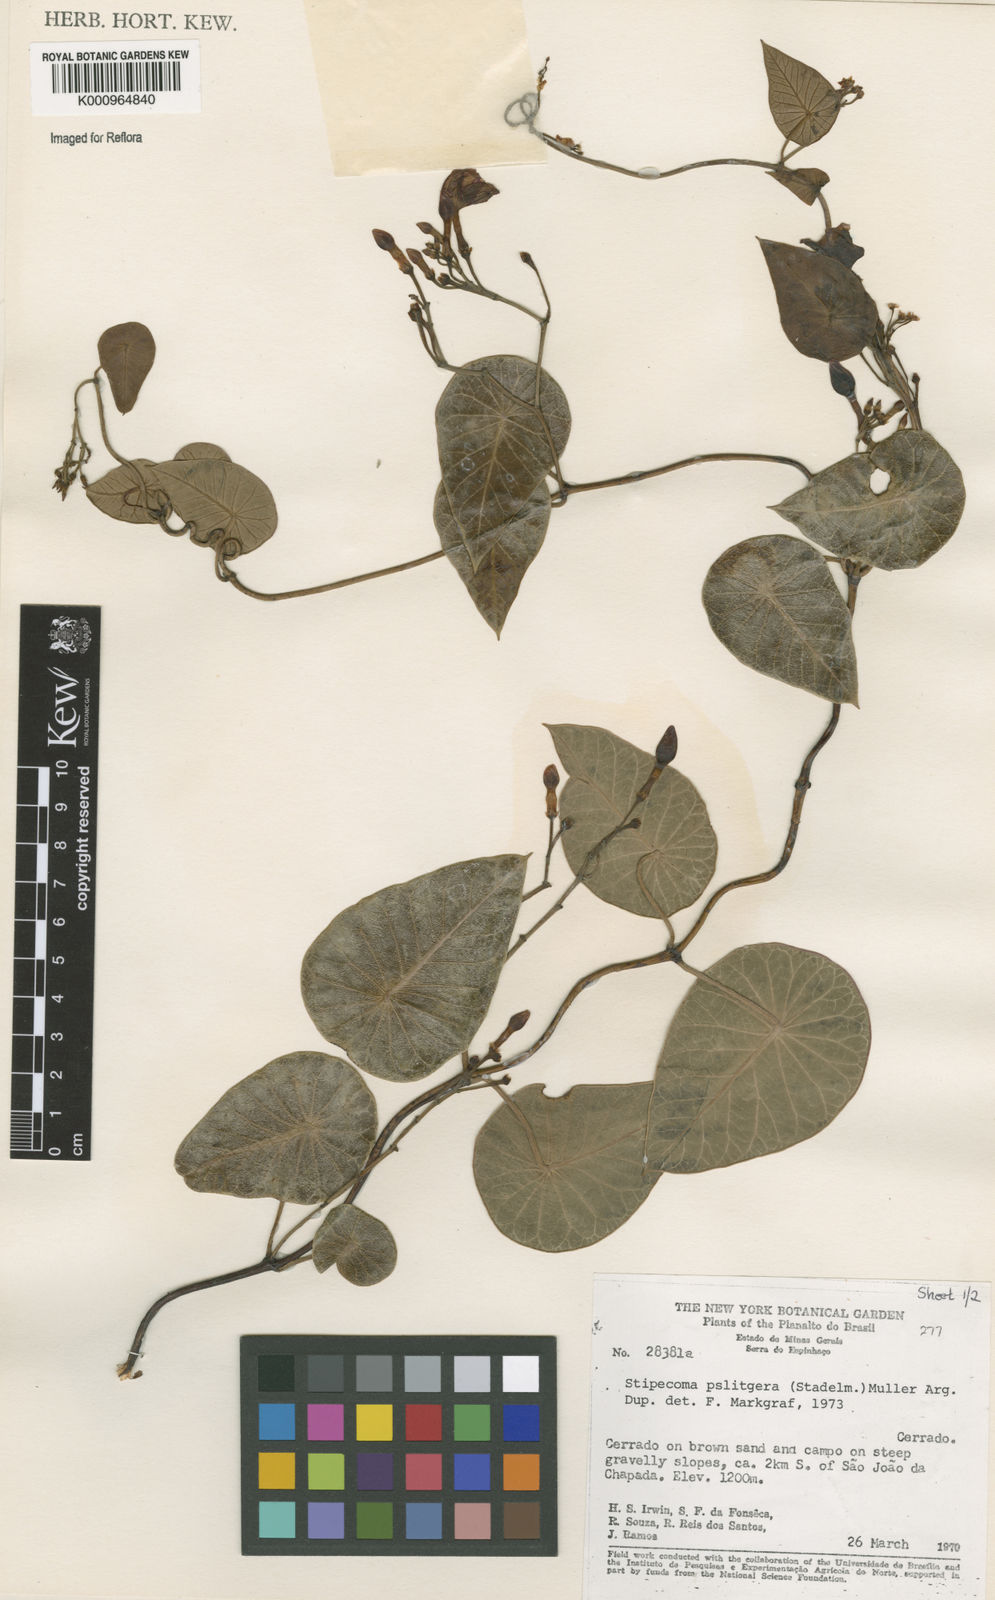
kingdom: Plantae
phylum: Tracheophyta
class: Magnoliopsida
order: Gentianales
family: Apocynaceae
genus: Stipecoma
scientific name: Stipecoma
